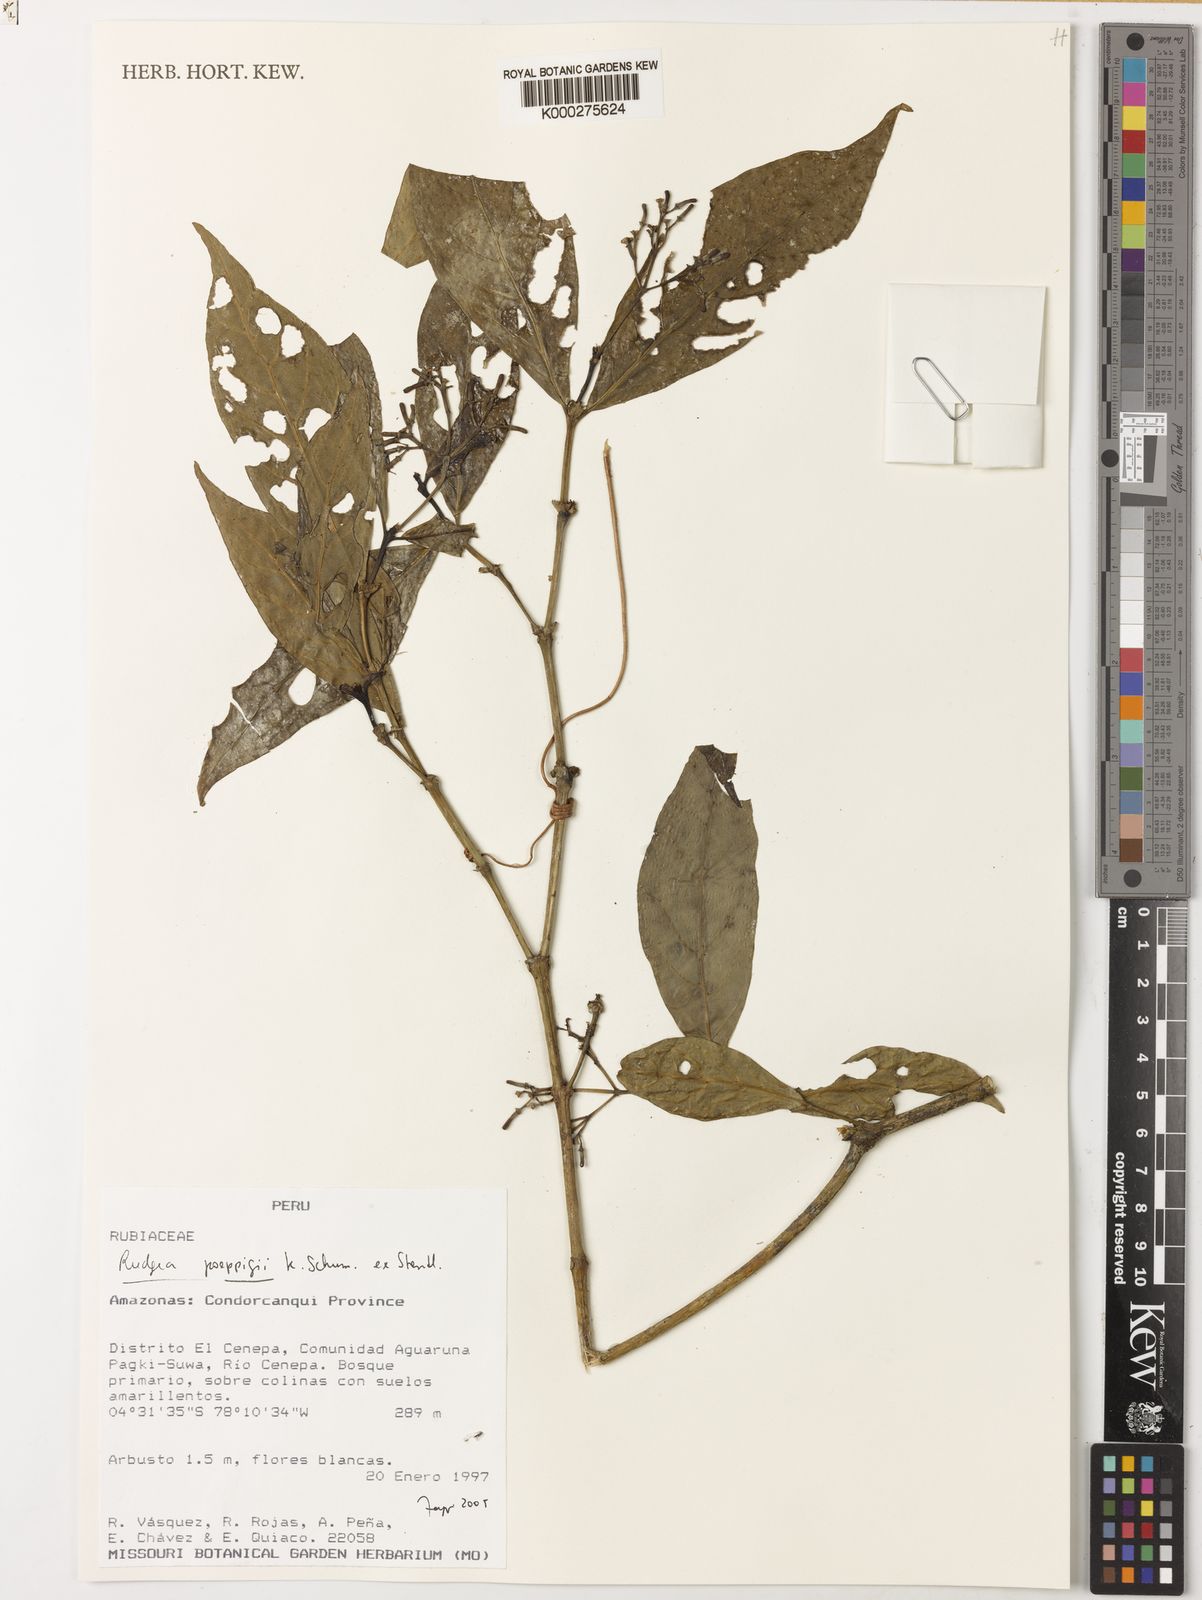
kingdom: Plantae
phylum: Tracheophyta
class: Magnoliopsida
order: Gentianales
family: Rubiaceae
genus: Rudgea
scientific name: Rudgea poeppigii
